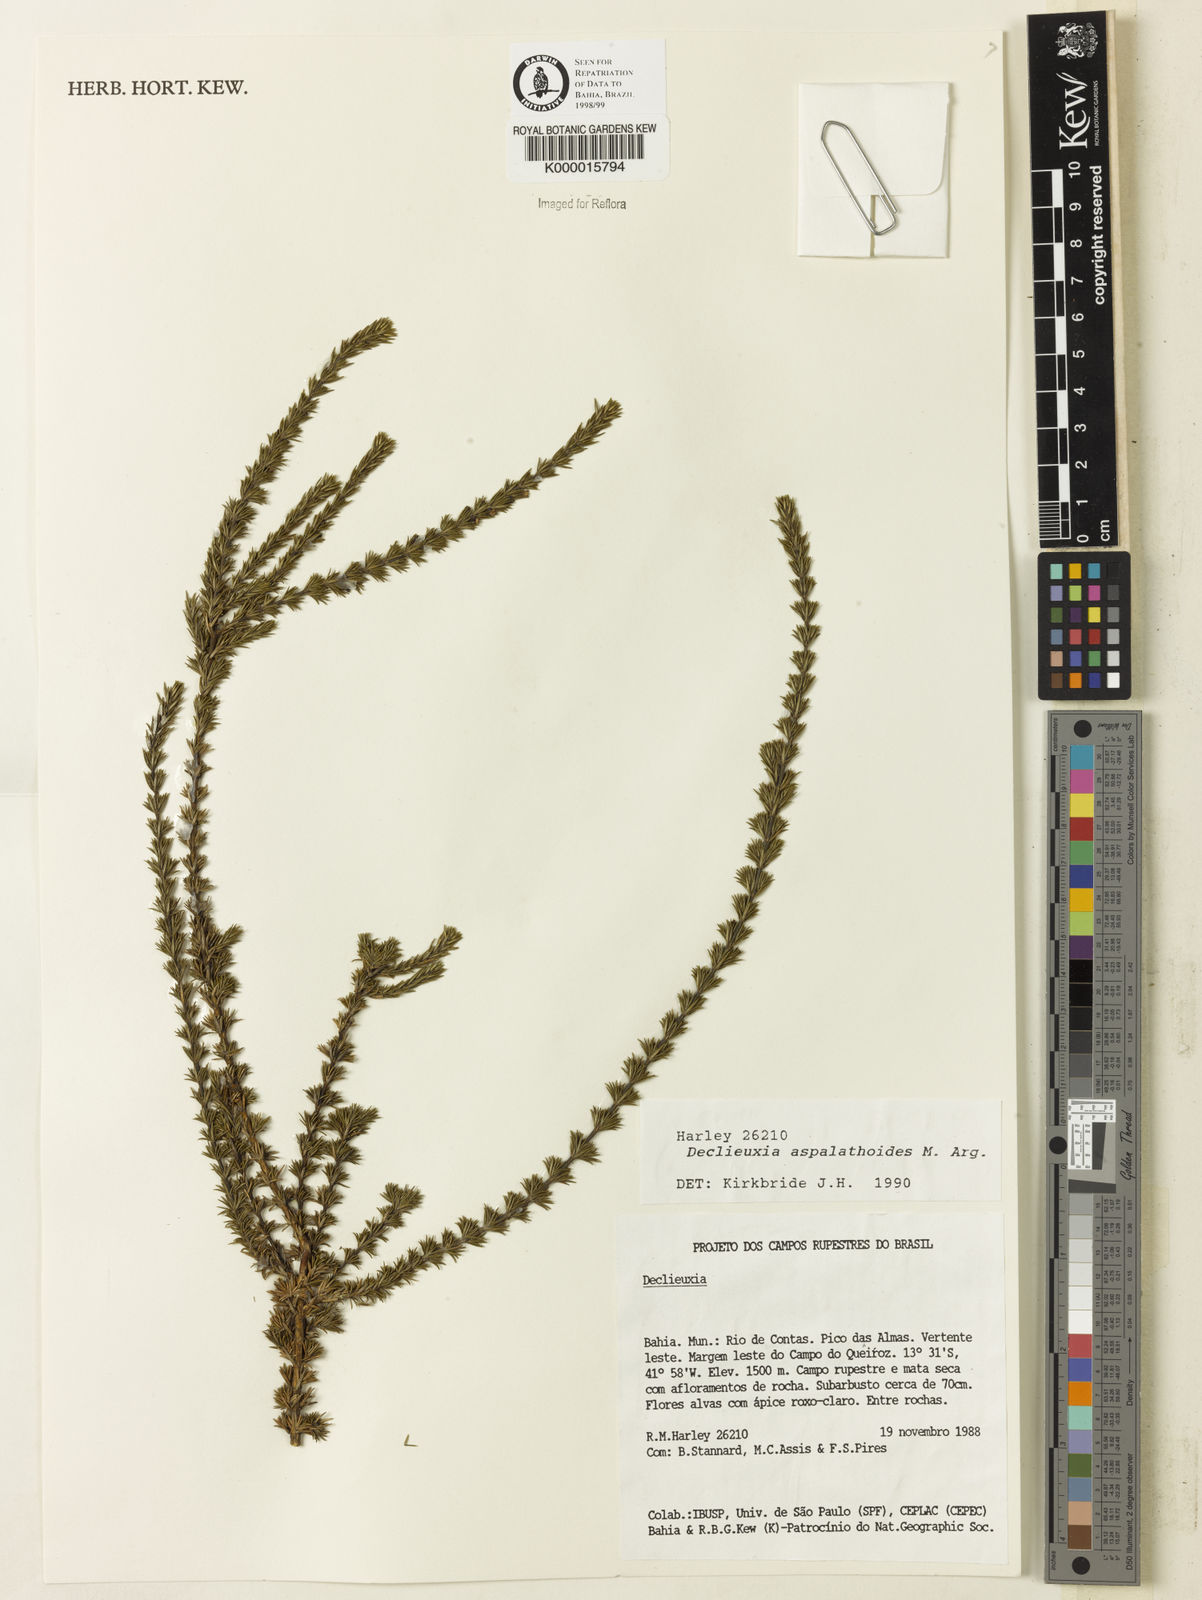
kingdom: Plantae
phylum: Tracheophyta
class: Magnoliopsida
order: Gentianales
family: Rubiaceae
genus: Declieuxia
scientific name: Declieuxia aspalathoides
